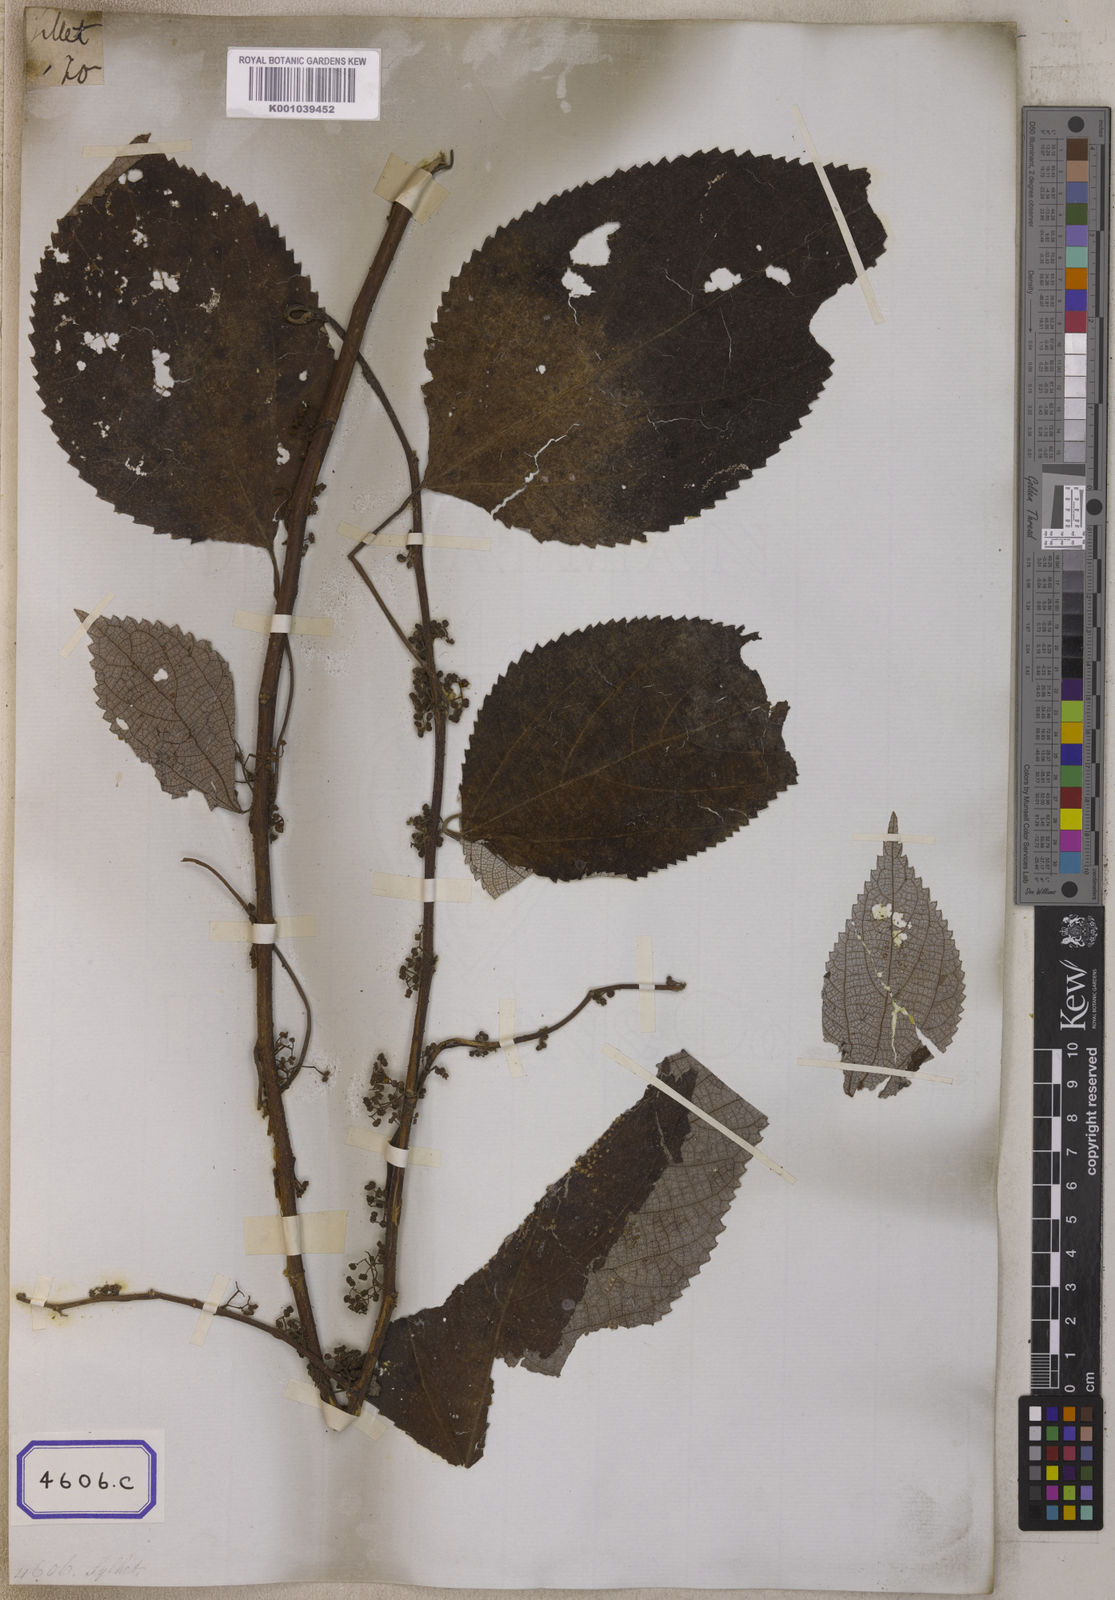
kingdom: Plantae
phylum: Tracheophyta
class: Magnoliopsida
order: Rosales
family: Urticaceae
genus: Boehmeria
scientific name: Boehmeria nivea
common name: Ramie chinese grass
